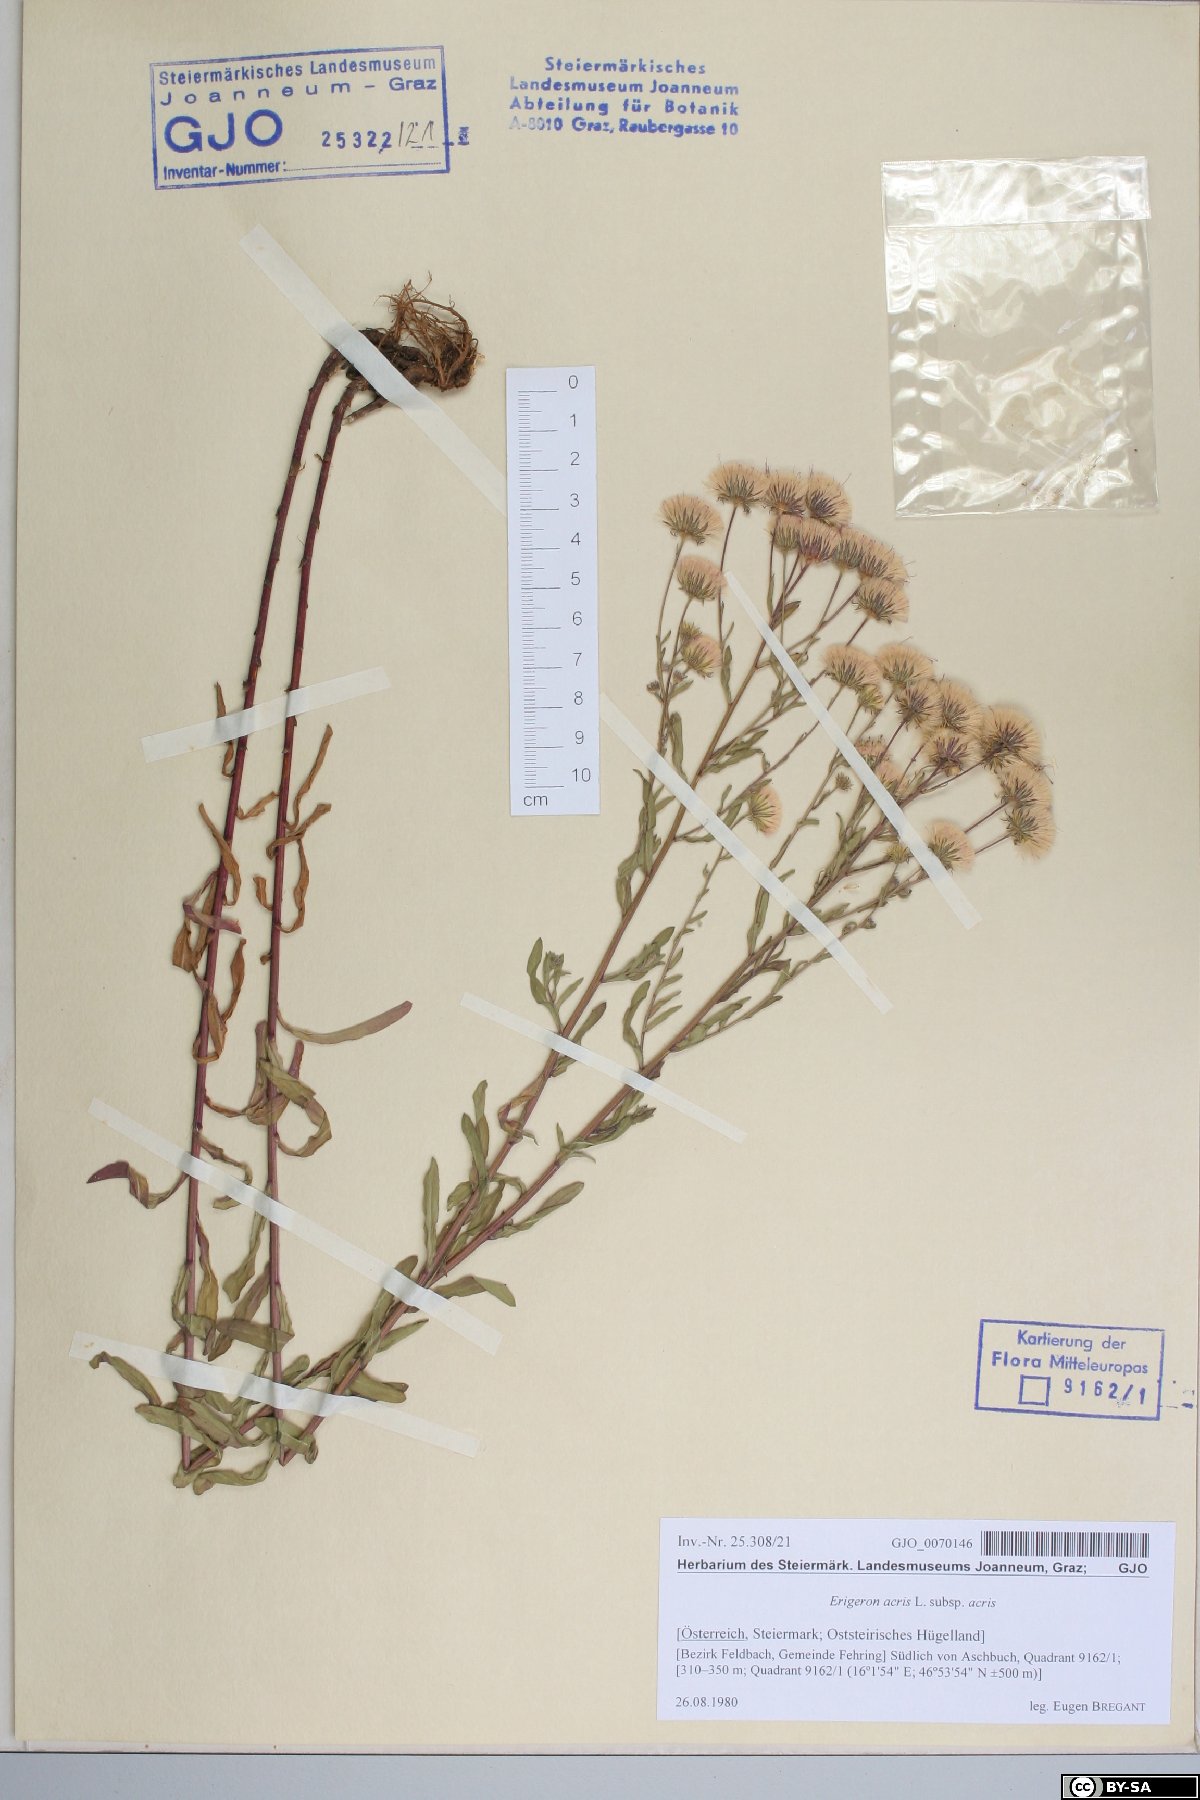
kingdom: Plantae
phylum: Tracheophyta
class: Magnoliopsida
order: Asterales
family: Asteraceae
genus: Erigeron
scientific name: Erigeron muralis
